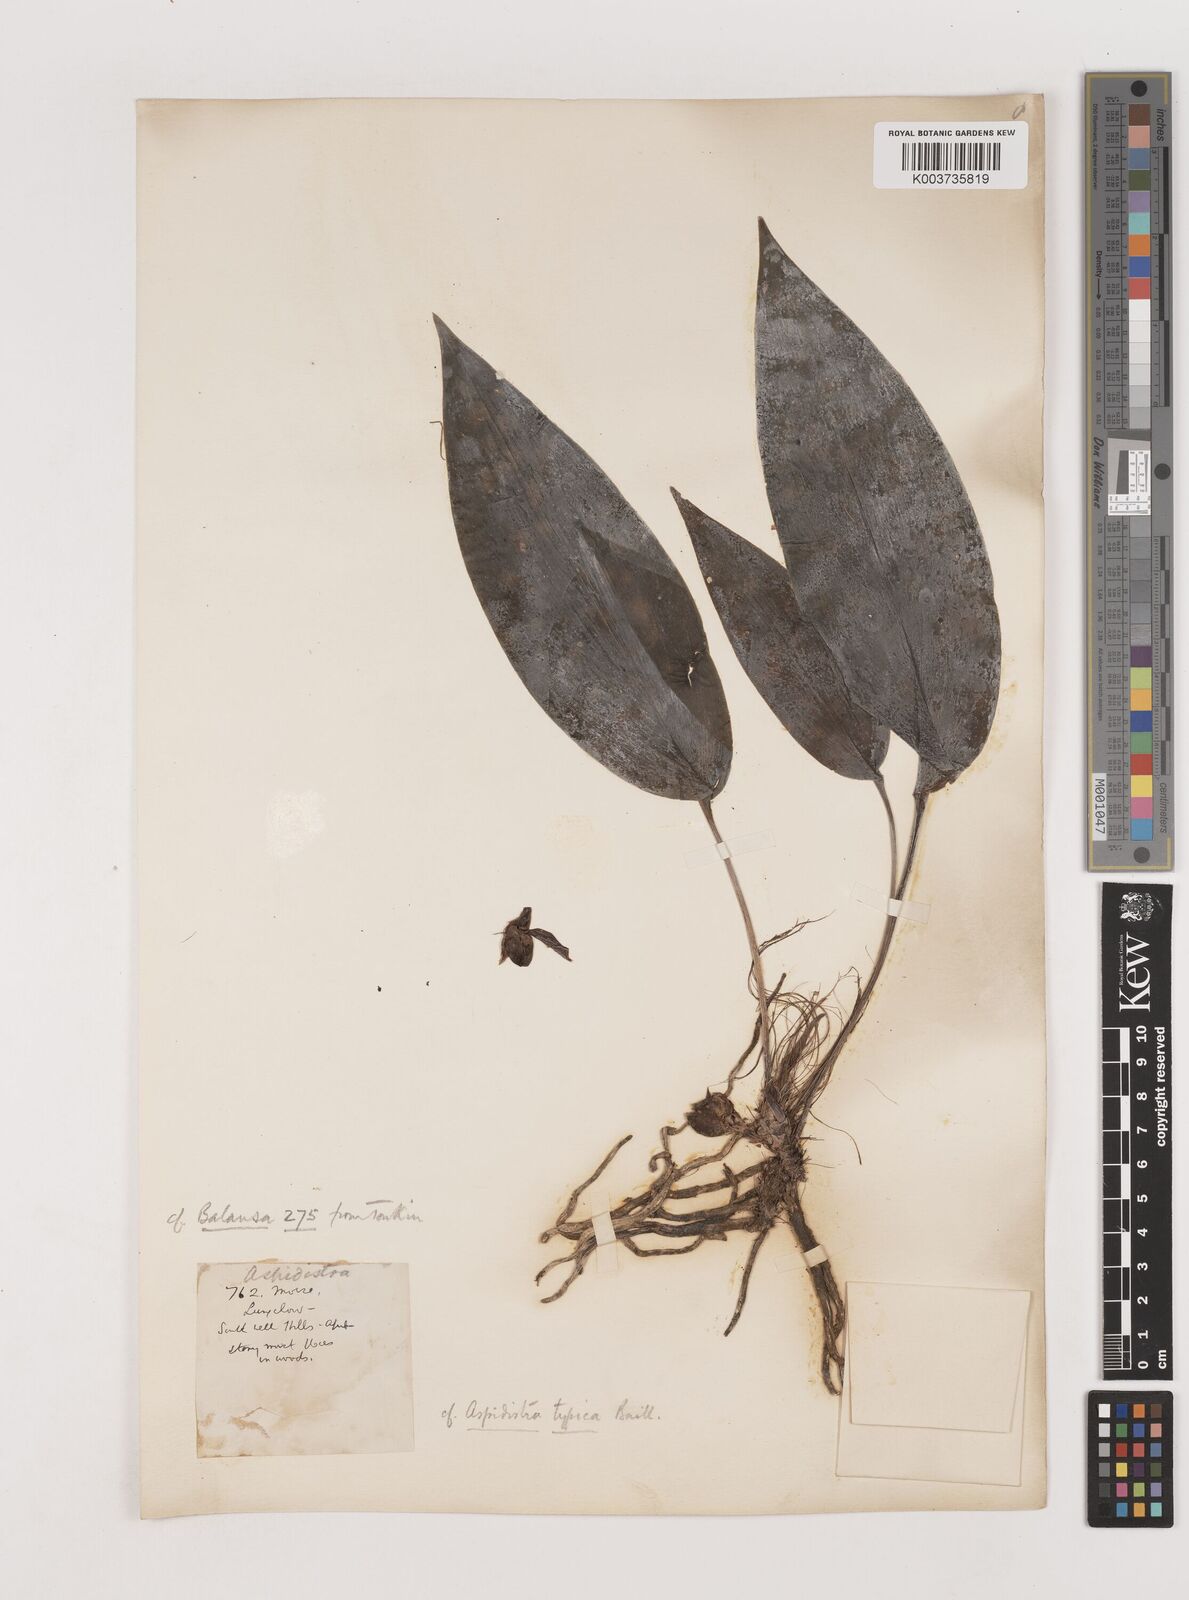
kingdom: Plantae
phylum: Tracheophyta
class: Liliopsida
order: Asparagales
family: Asparagaceae
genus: Aspidistra
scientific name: Aspidistra typica
